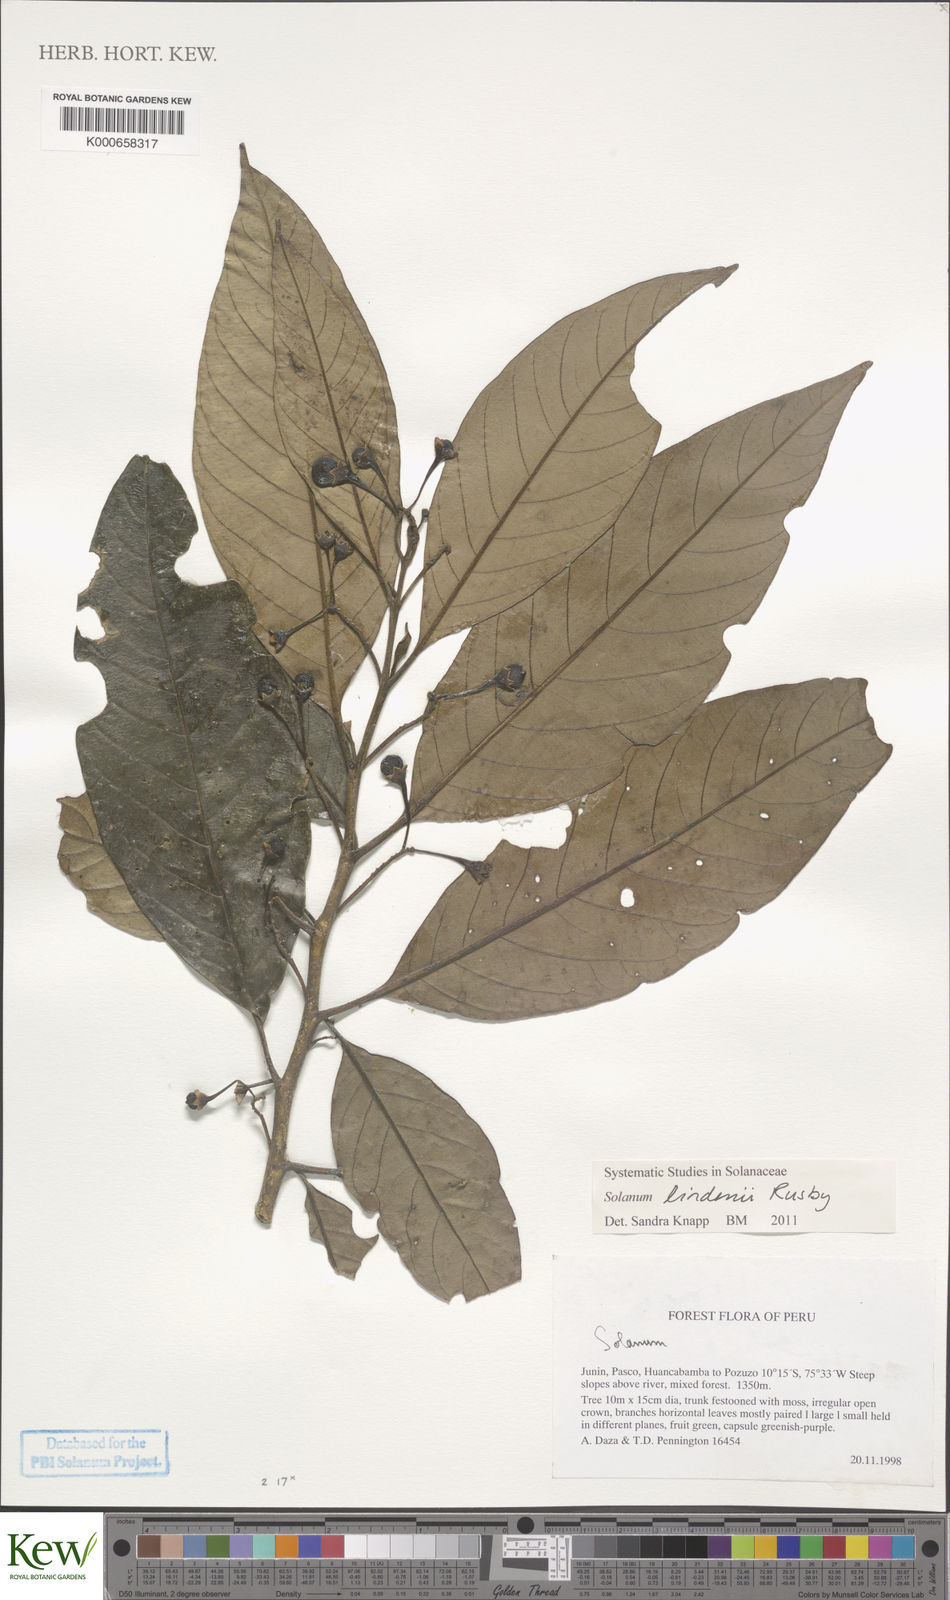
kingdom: Plantae
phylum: Tracheophyta
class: Magnoliopsida
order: Solanales
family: Solanaceae
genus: Solanum
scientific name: Solanum lindenii
